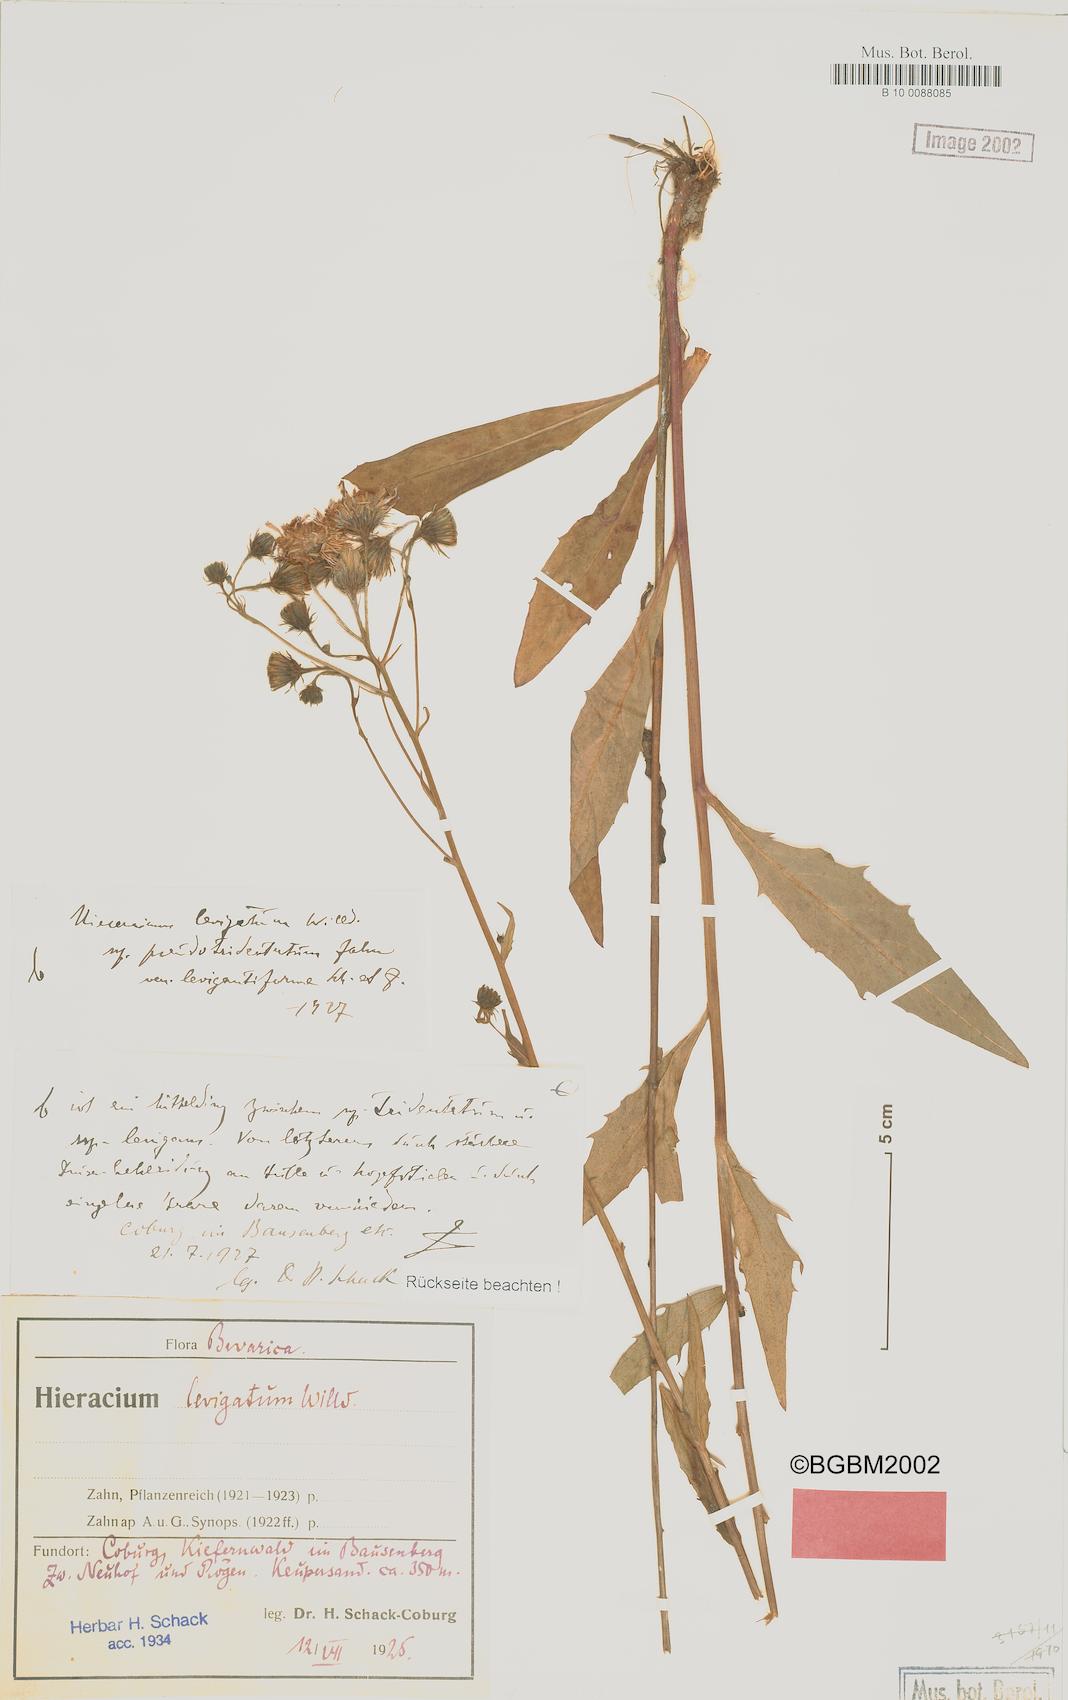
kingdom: Plantae
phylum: Tracheophyta
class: Magnoliopsida
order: Asterales
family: Asteraceae
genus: Hieracium
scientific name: Hieracium laevigatum
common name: Smooth hawkweed
